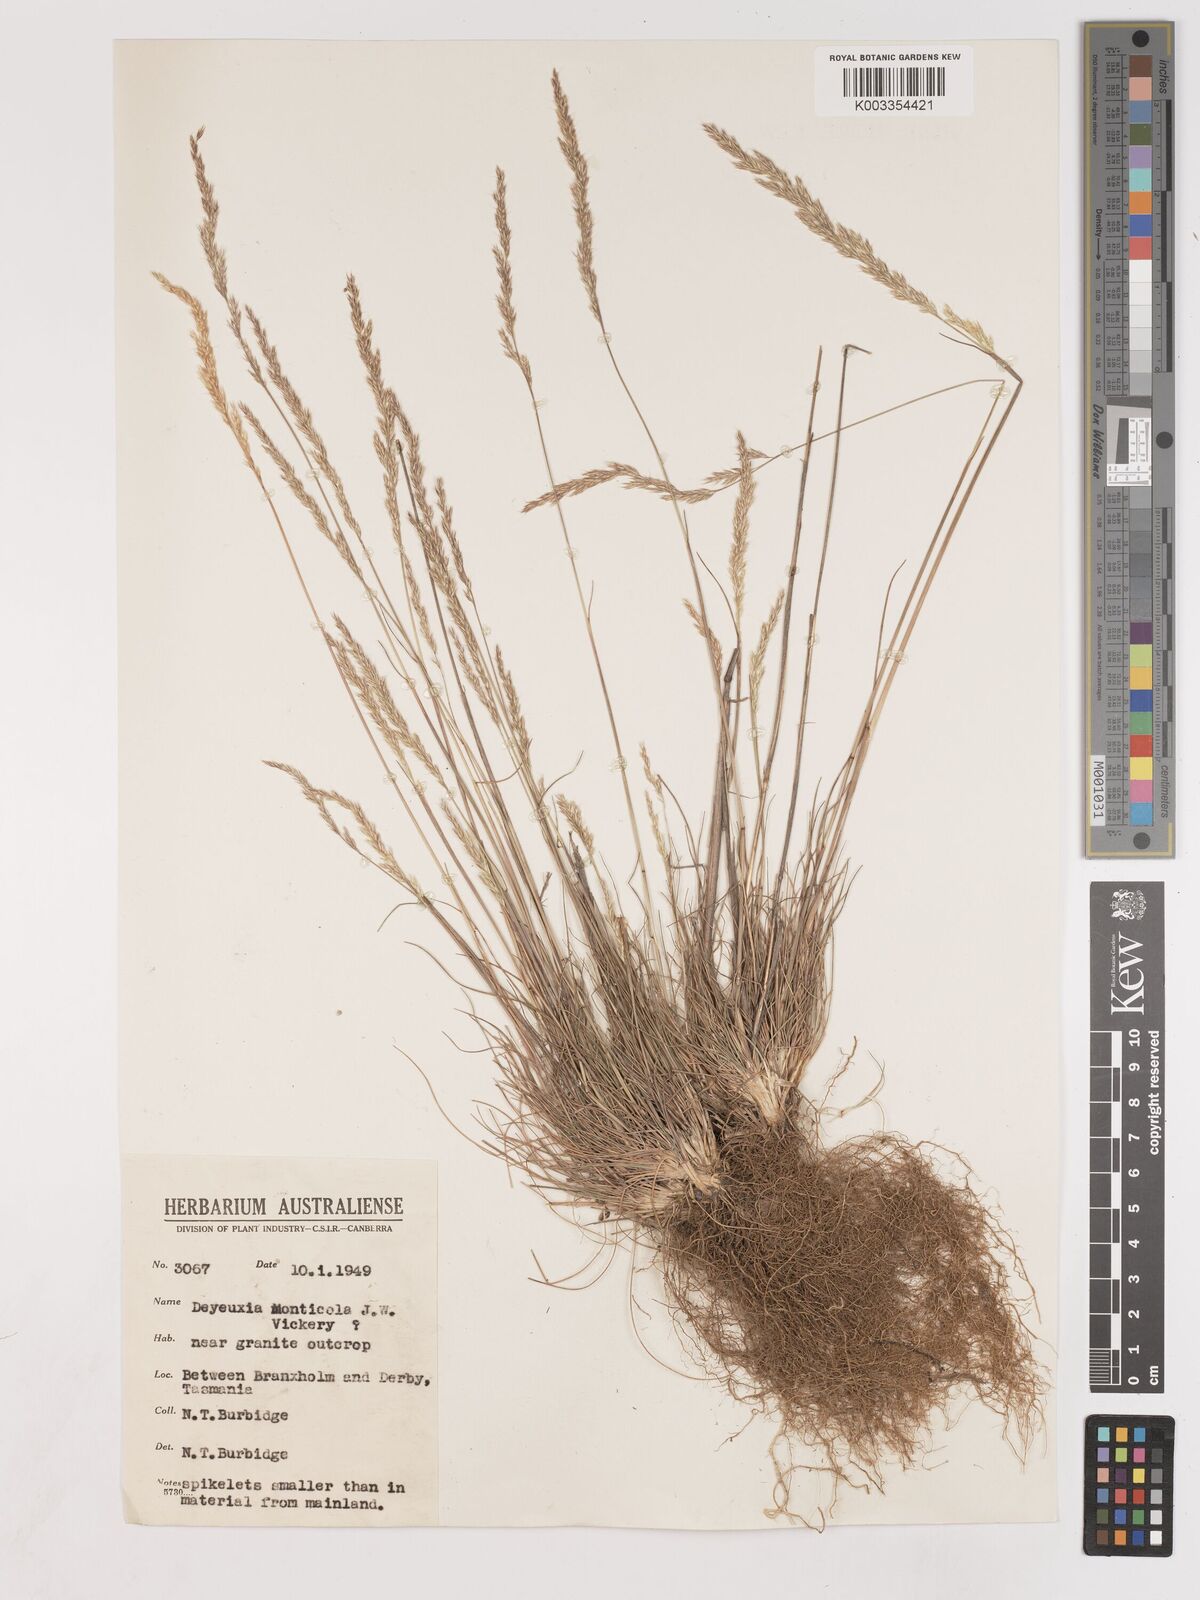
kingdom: Plantae
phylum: Tracheophyta
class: Liliopsida
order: Poales
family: Poaceae
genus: Calamagrostis
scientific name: Calamagrostis
